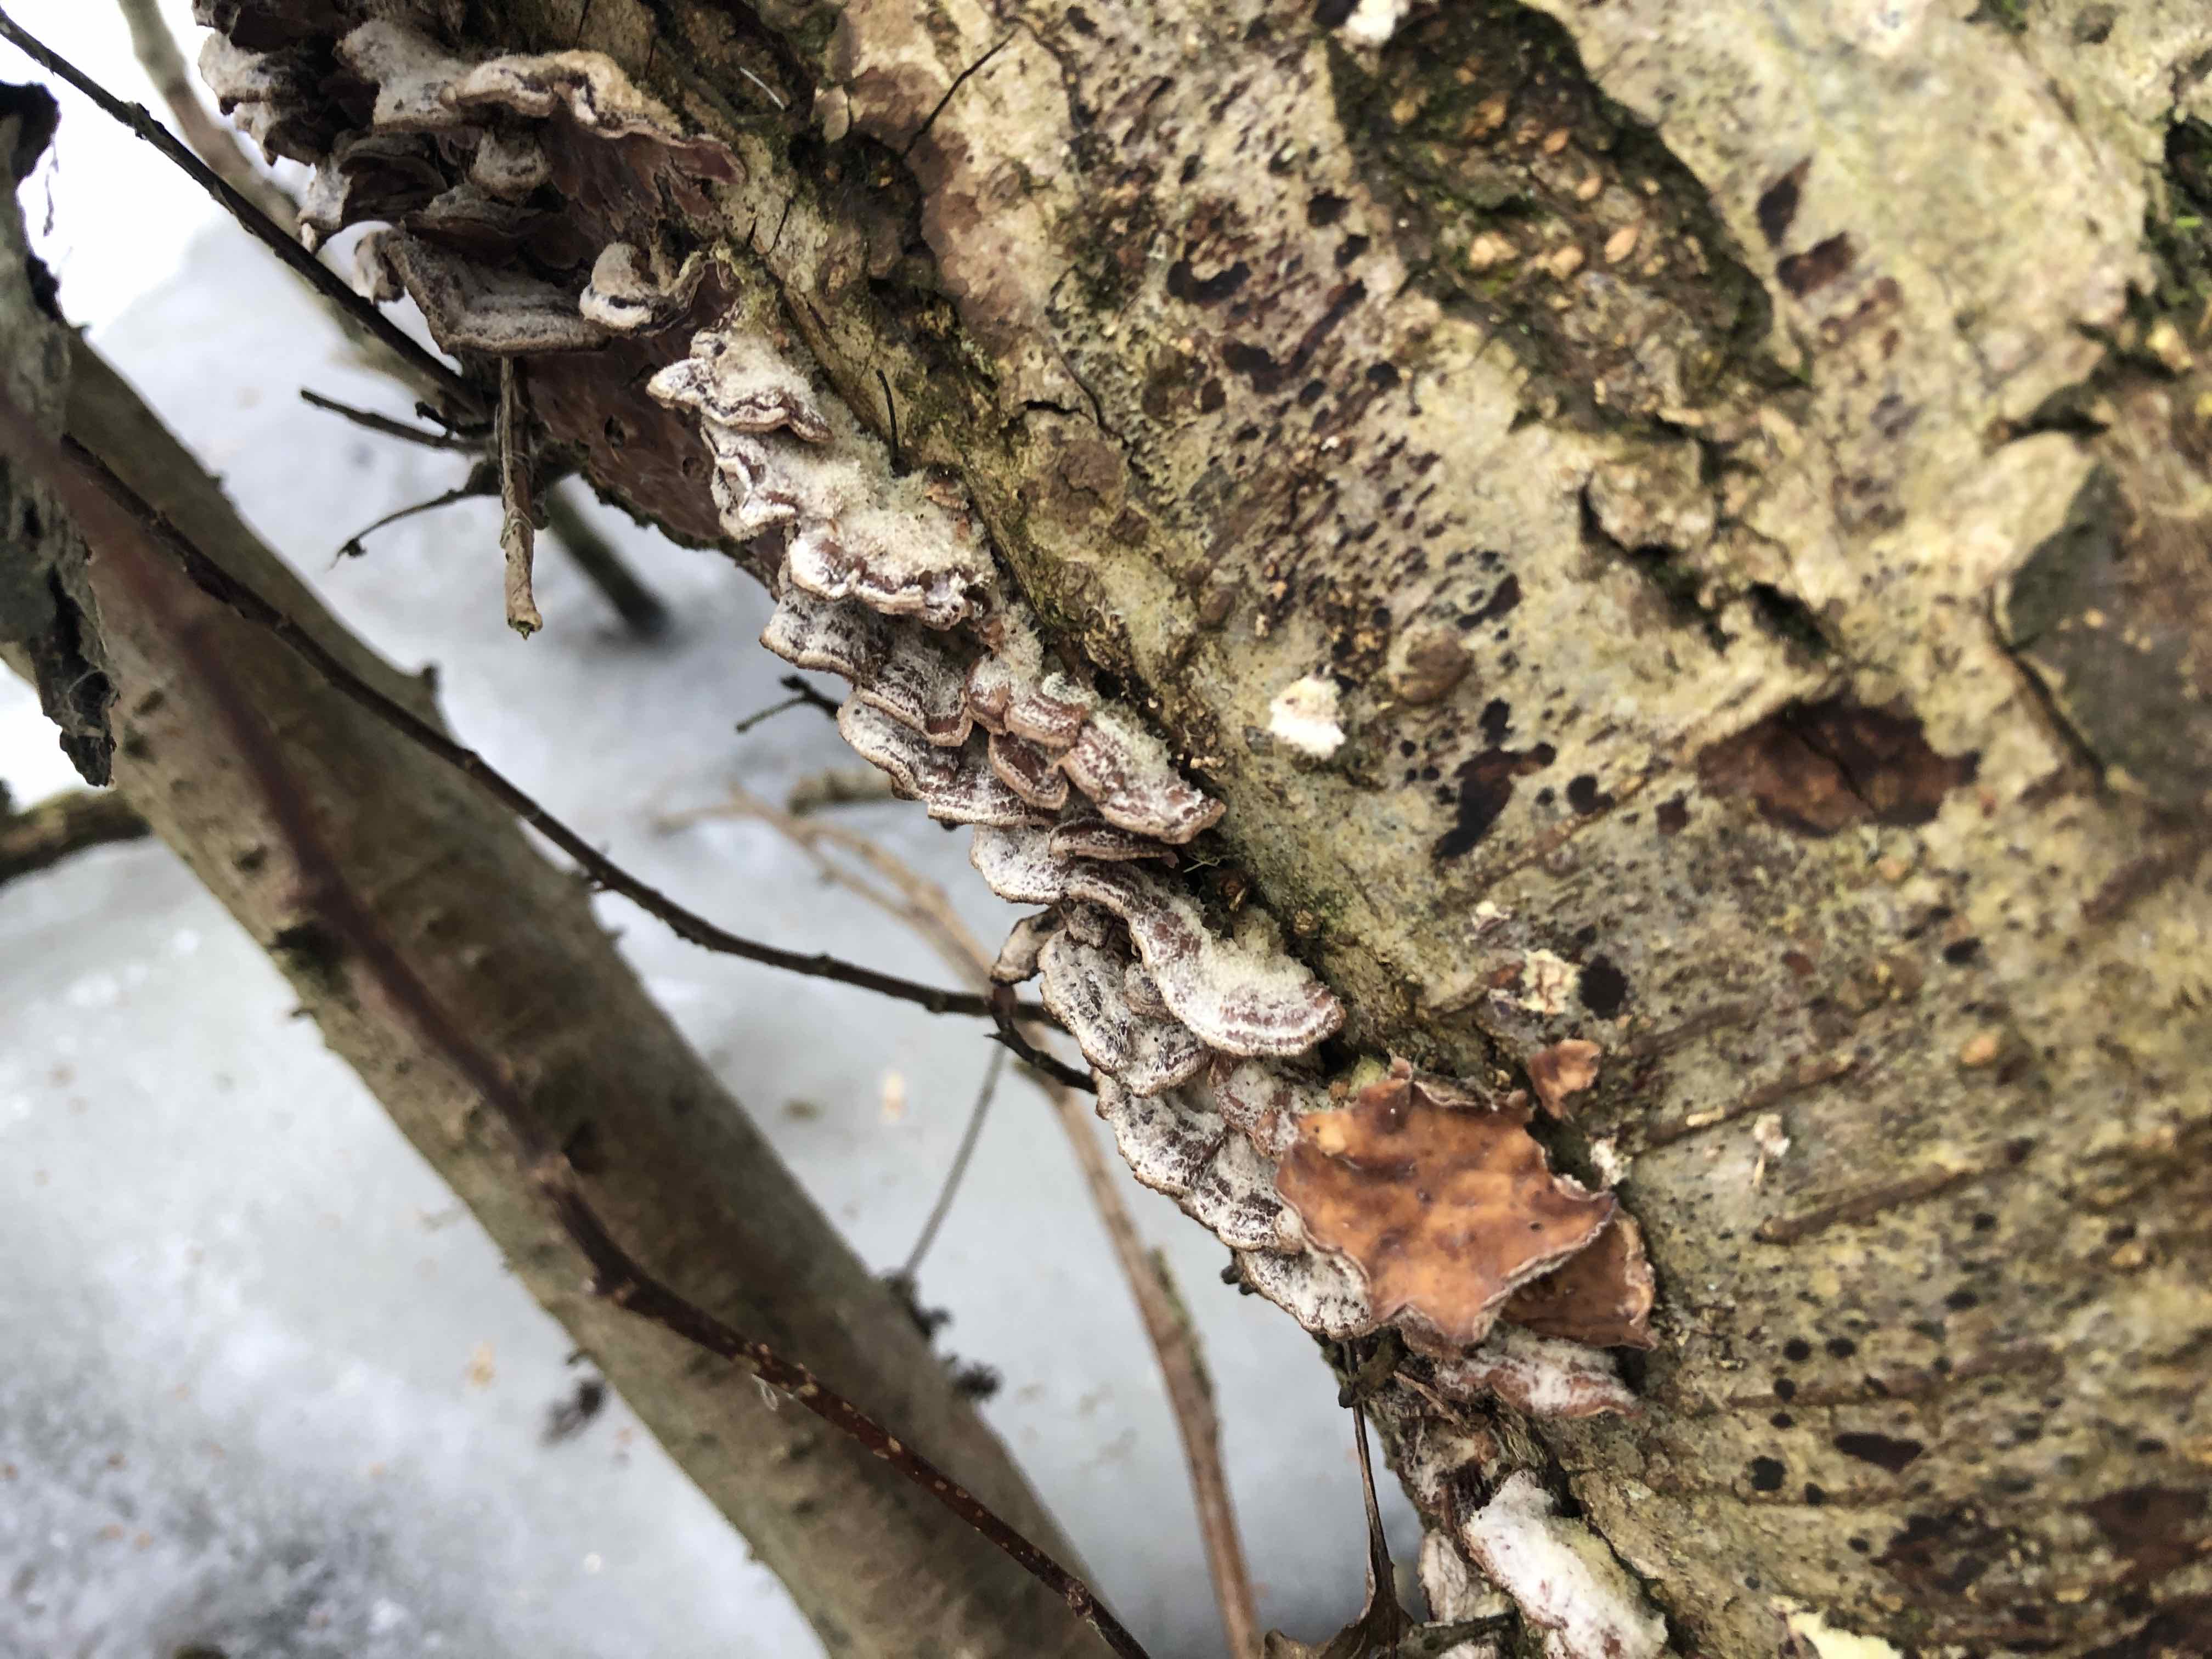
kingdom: Fungi
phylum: Basidiomycota
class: Agaricomycetes
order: Agaricales
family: Cyphellaceae
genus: Chondrostereum
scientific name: Chondrostereum purpureum
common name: purpurlædersvamp
